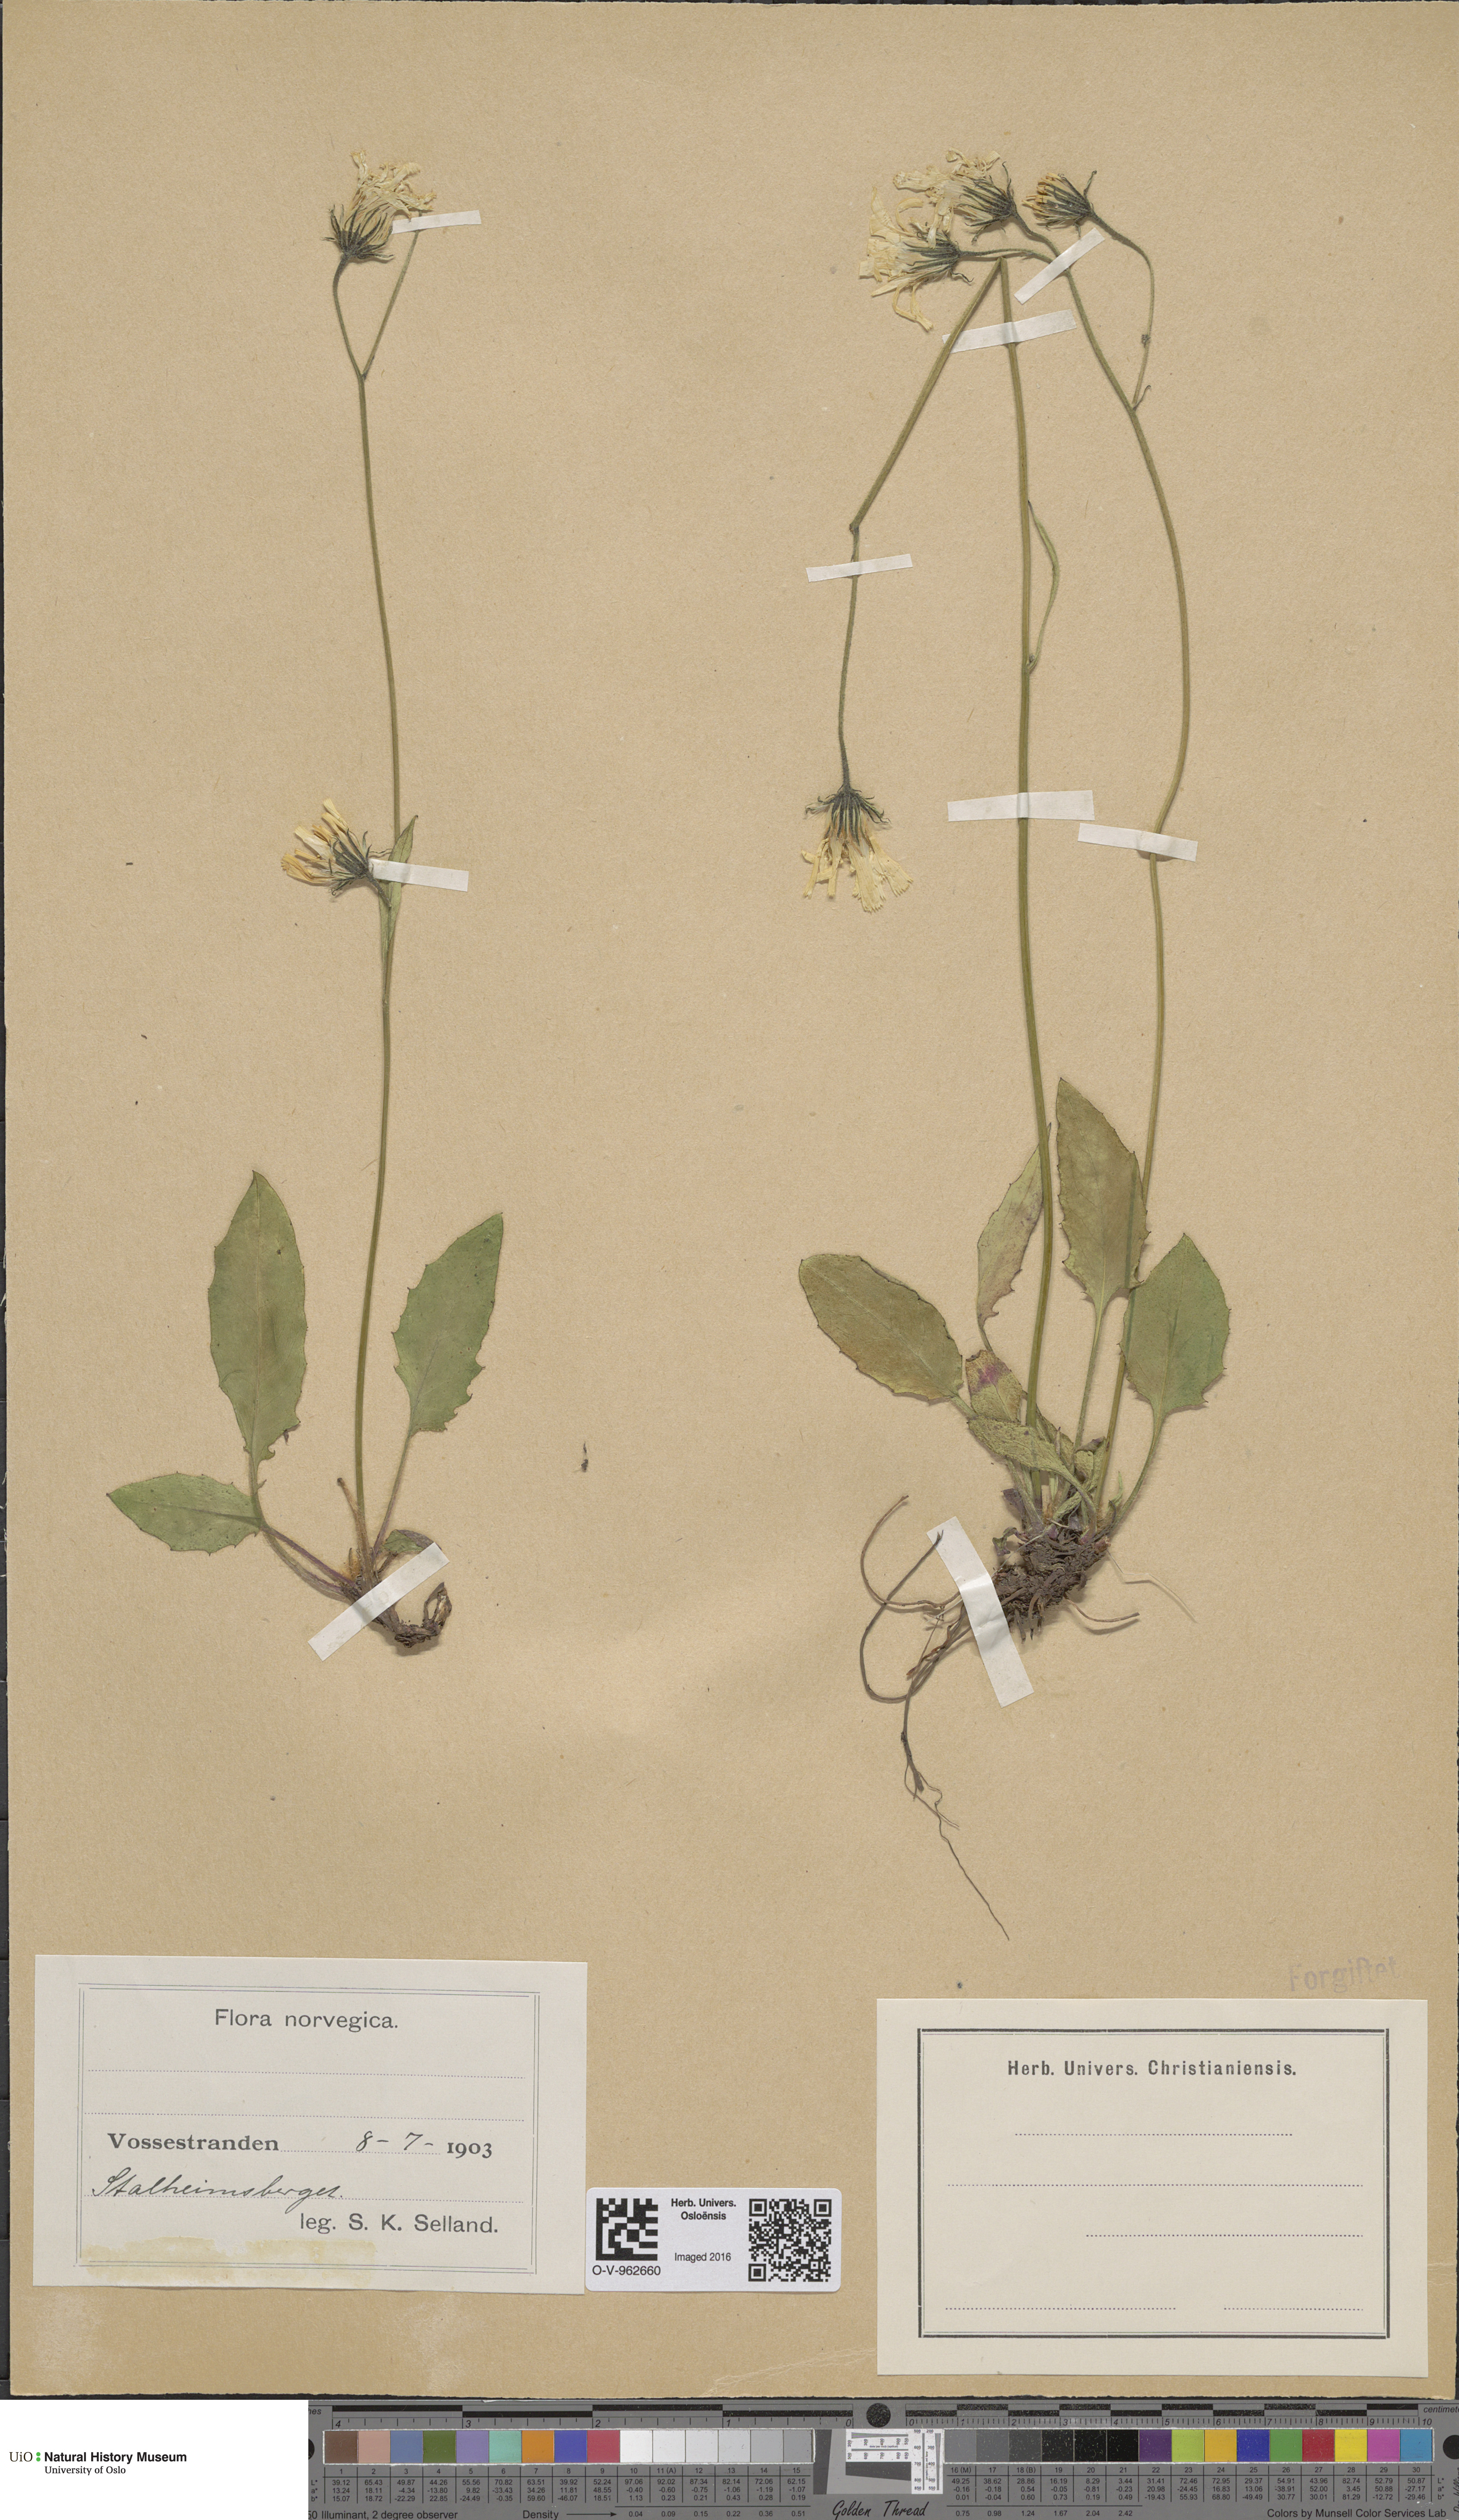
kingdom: Plantae
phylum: Tracheophyta
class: Magnoliopsida
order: Asterales
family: Asteraceae
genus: Hieracium
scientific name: Hieracium
